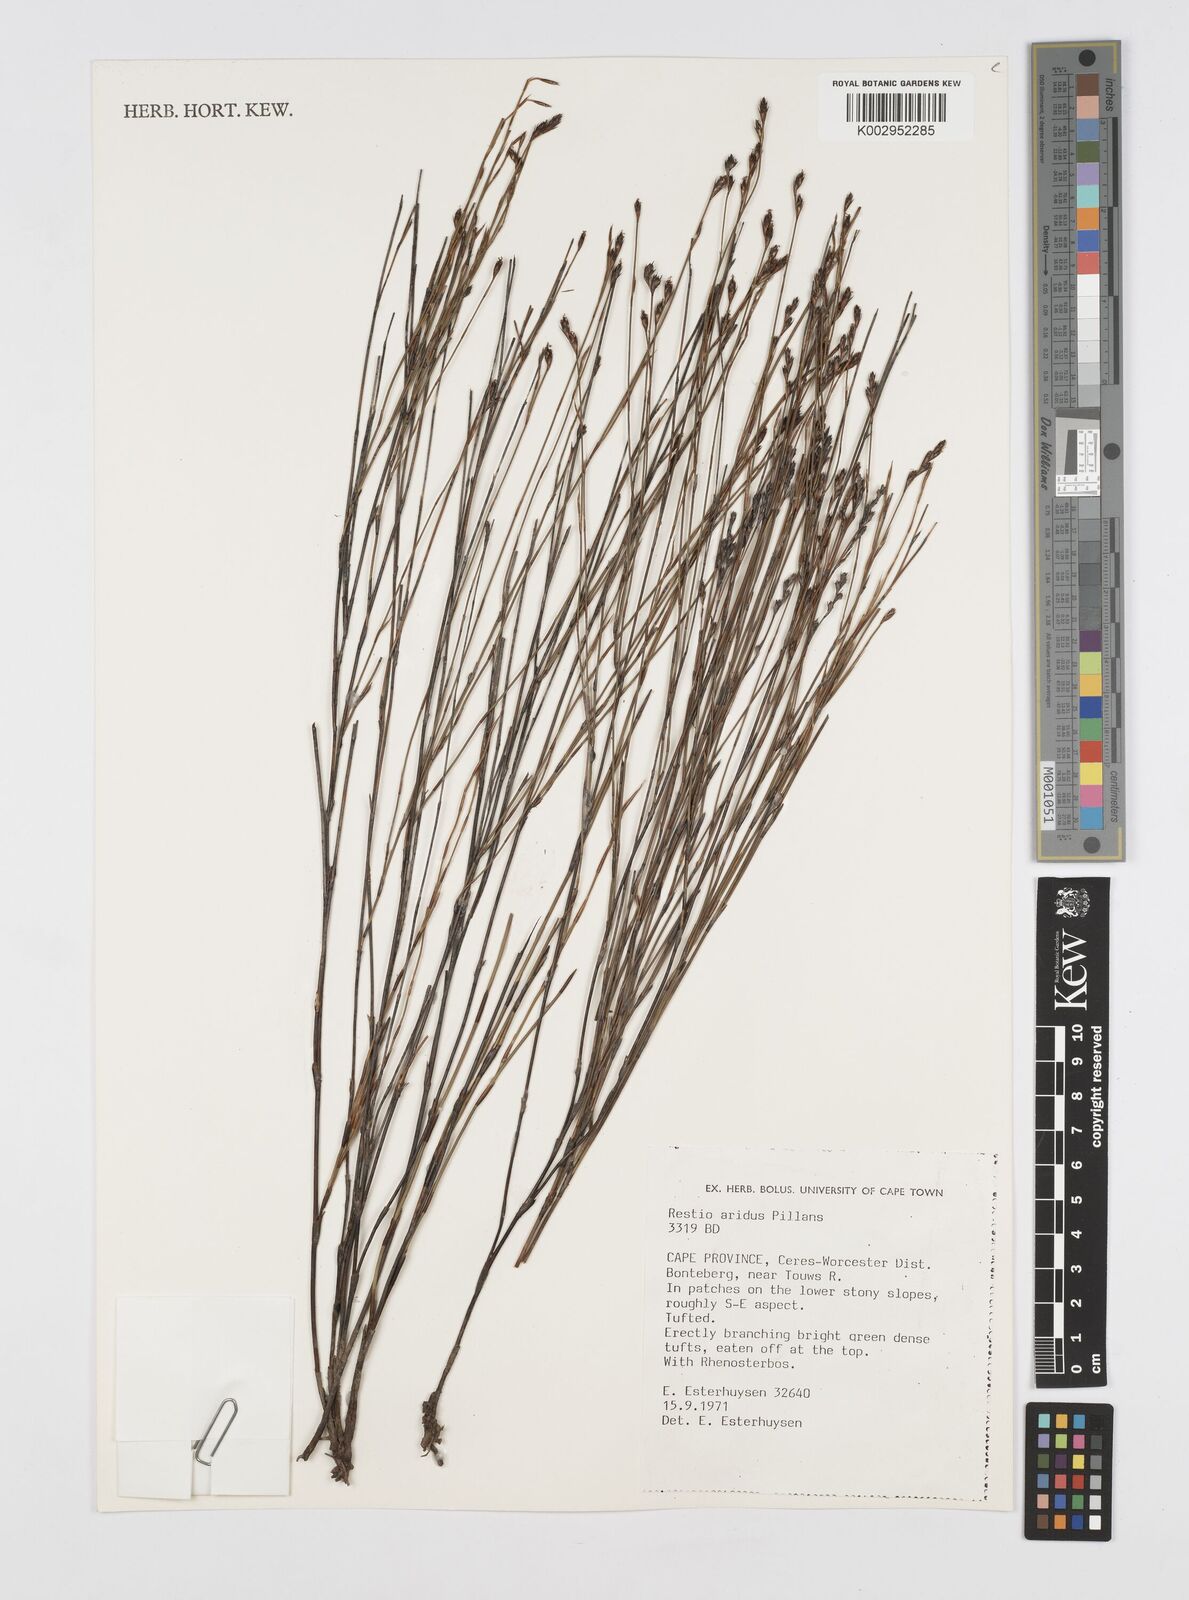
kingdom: Plantae
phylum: Tracheophyta
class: Liliopsida
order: Poales
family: Restionaceae
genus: Restio
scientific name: Restio aridus
